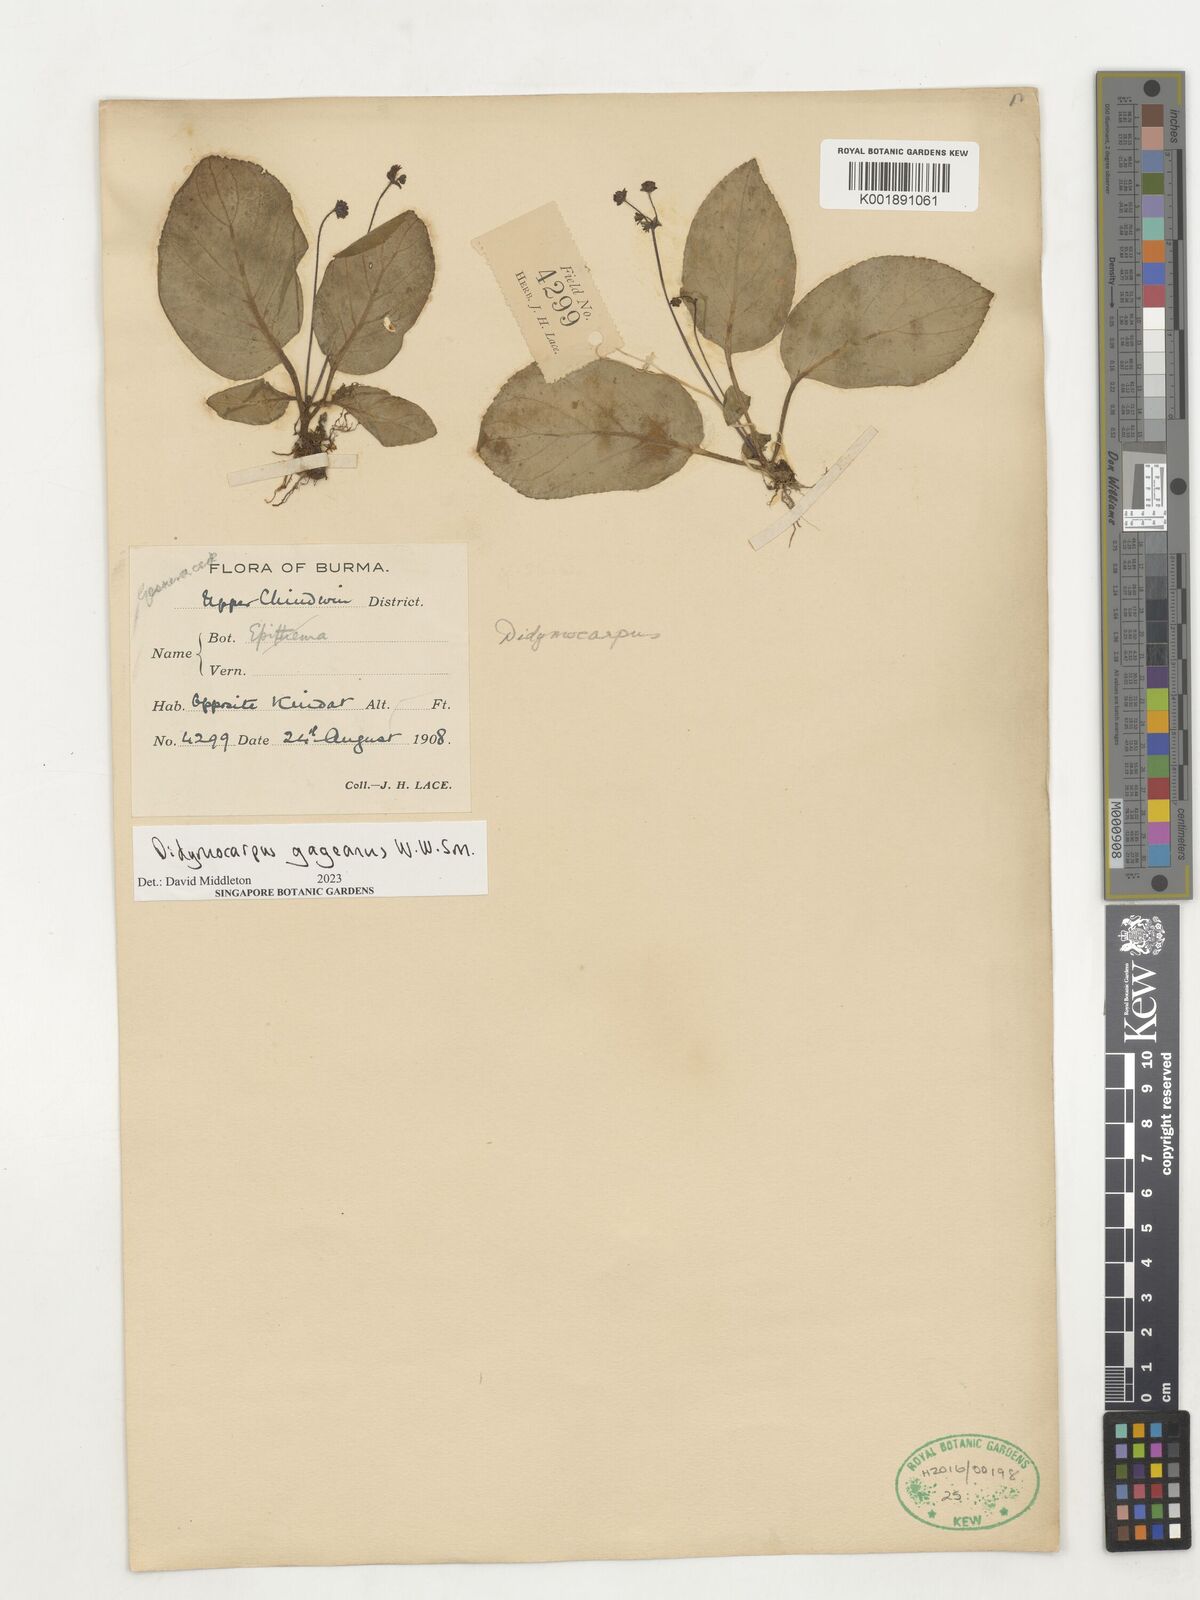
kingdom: Plantae
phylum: Tracheophyta
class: Magnoliopsida
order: Lamiales
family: Gesneriaceae
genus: Didymocarpus
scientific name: Didymocarpus gageanus
